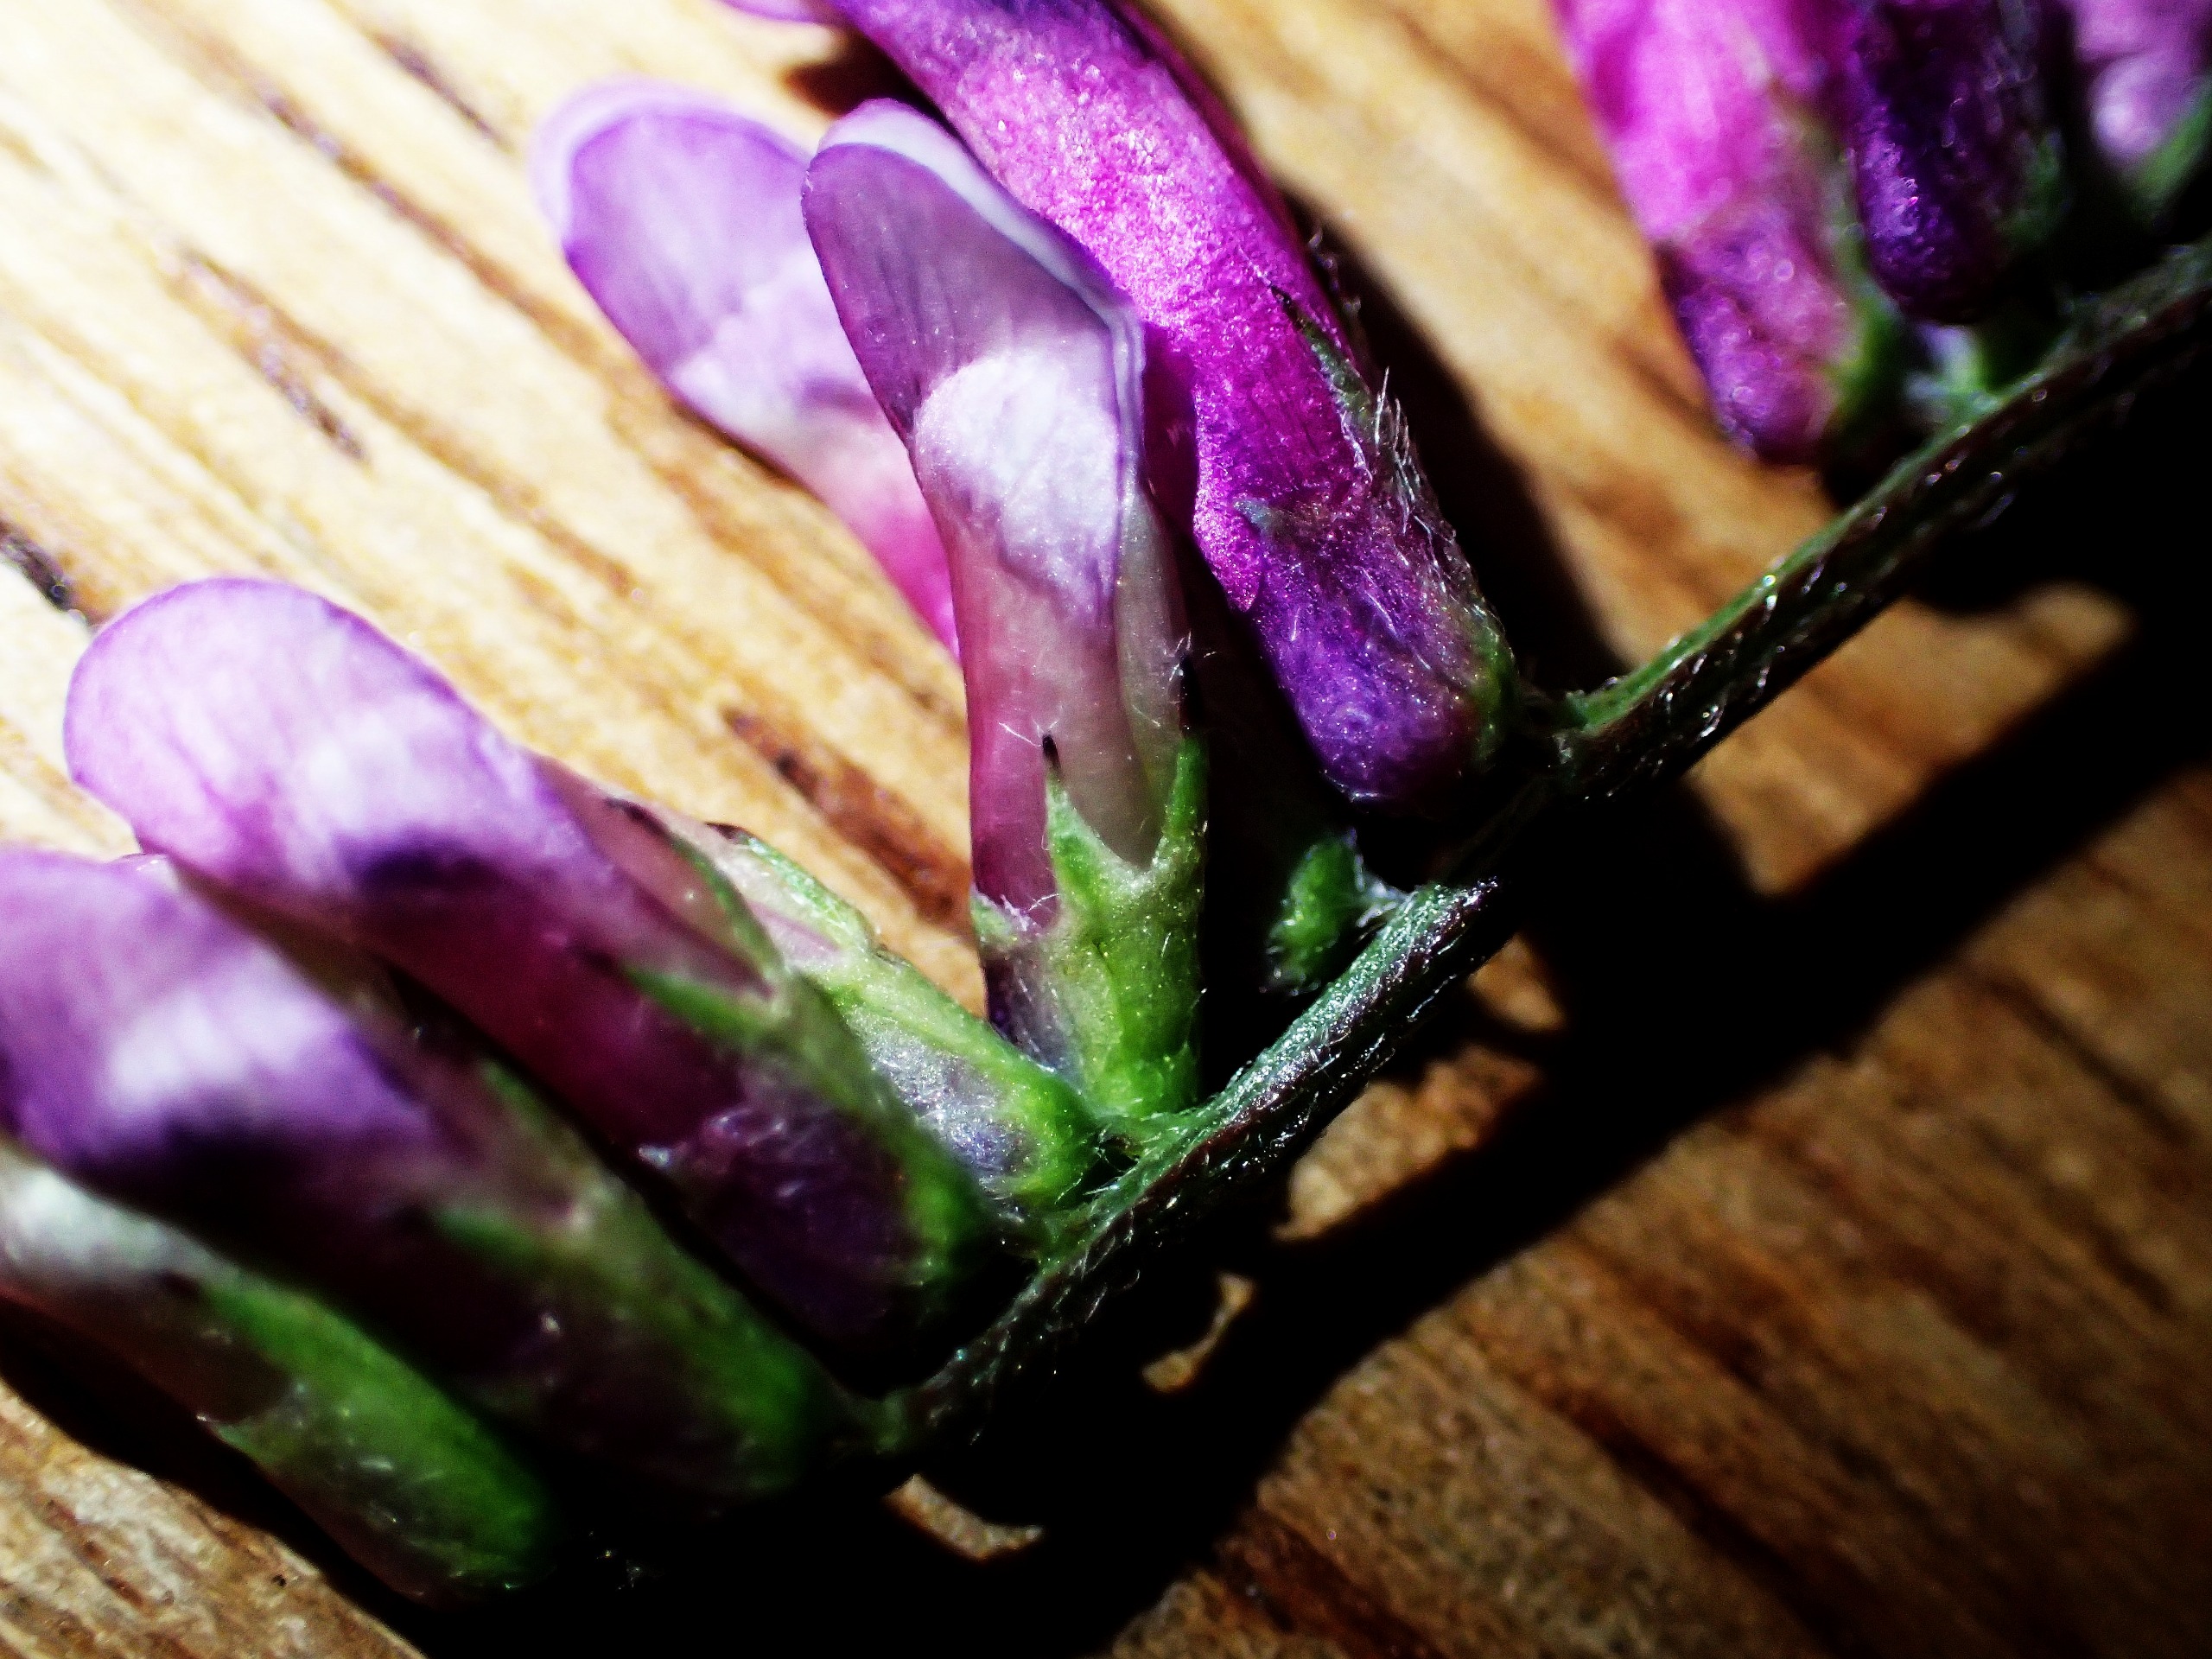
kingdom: Plantae
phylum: Tracheophyta
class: Magnoliopsida
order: Fabales
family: Fabaceae
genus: Vicia
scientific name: Vicia villosa
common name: Glat vikke
